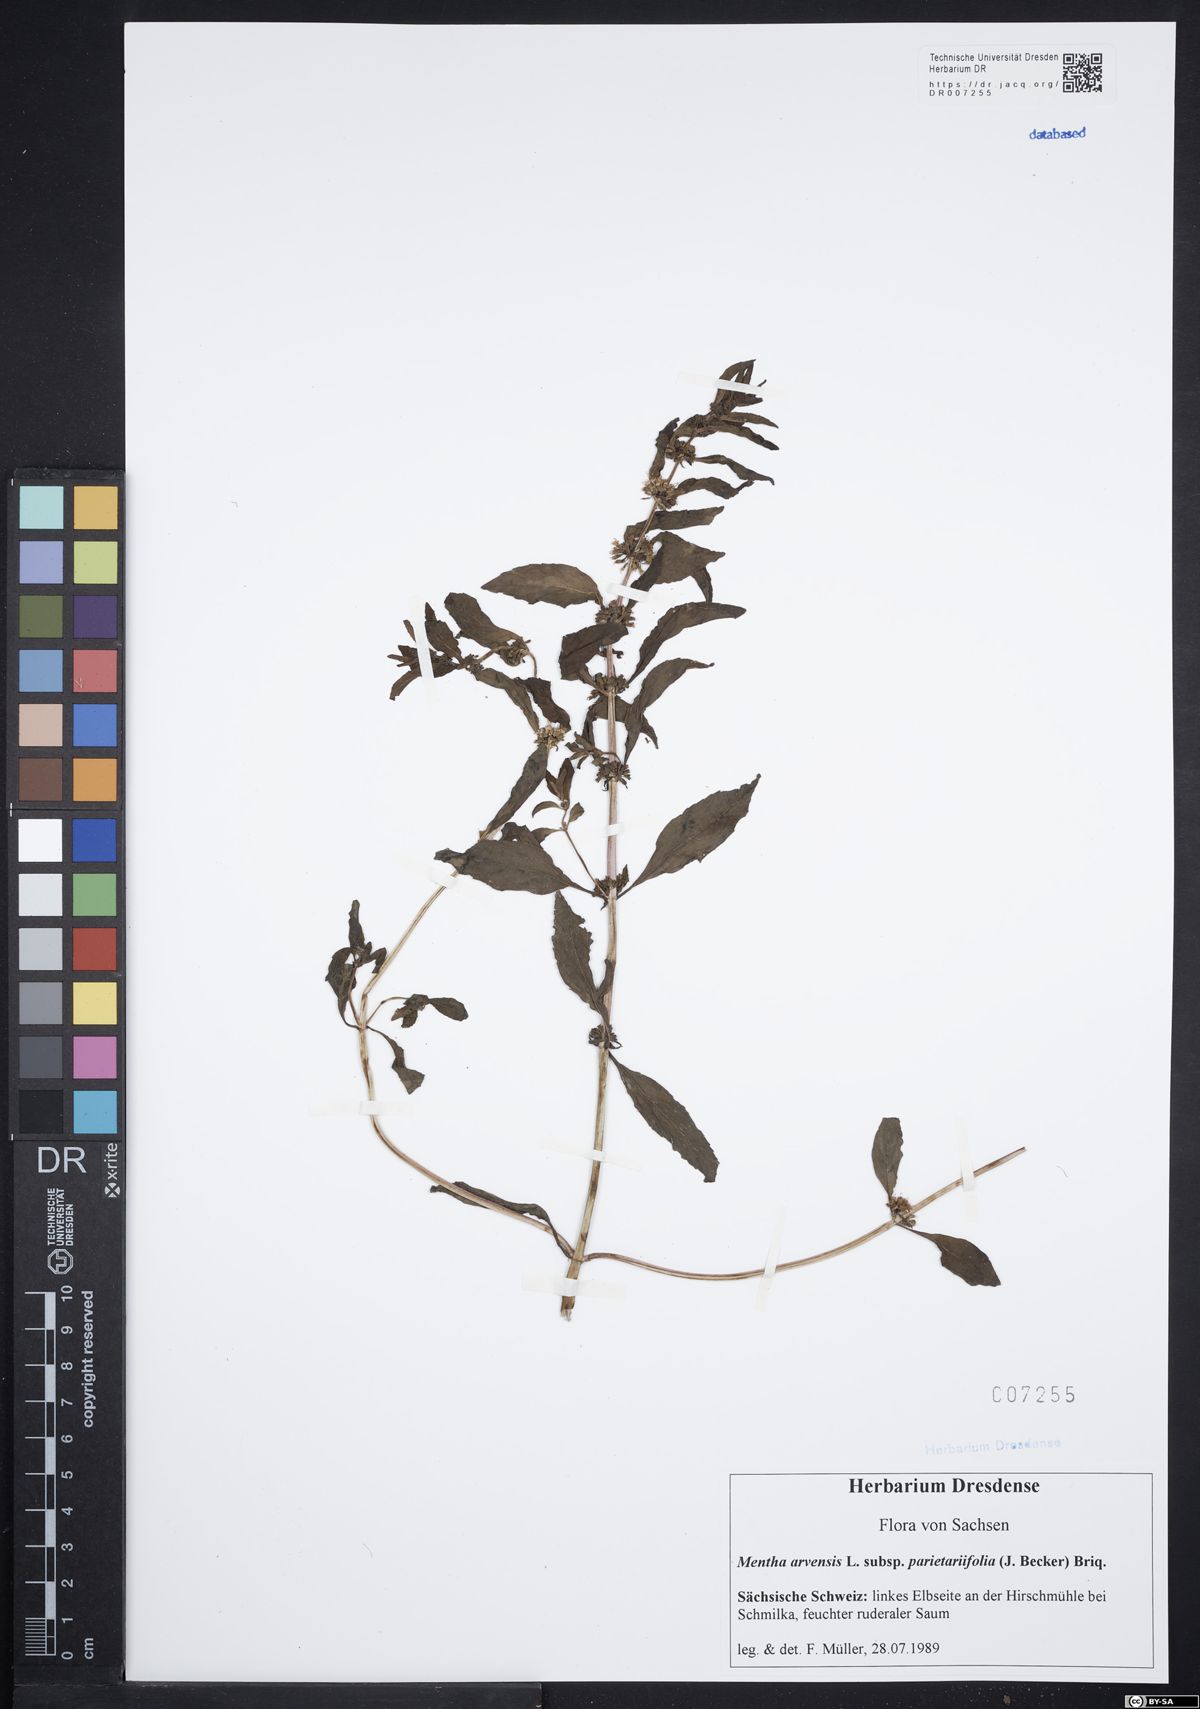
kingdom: Plantae
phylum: Tracheophyta
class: Magnoliopsida
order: Lamiales
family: Lamiaceae
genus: Mentha
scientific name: Mentha arvensis
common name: Corn mint
